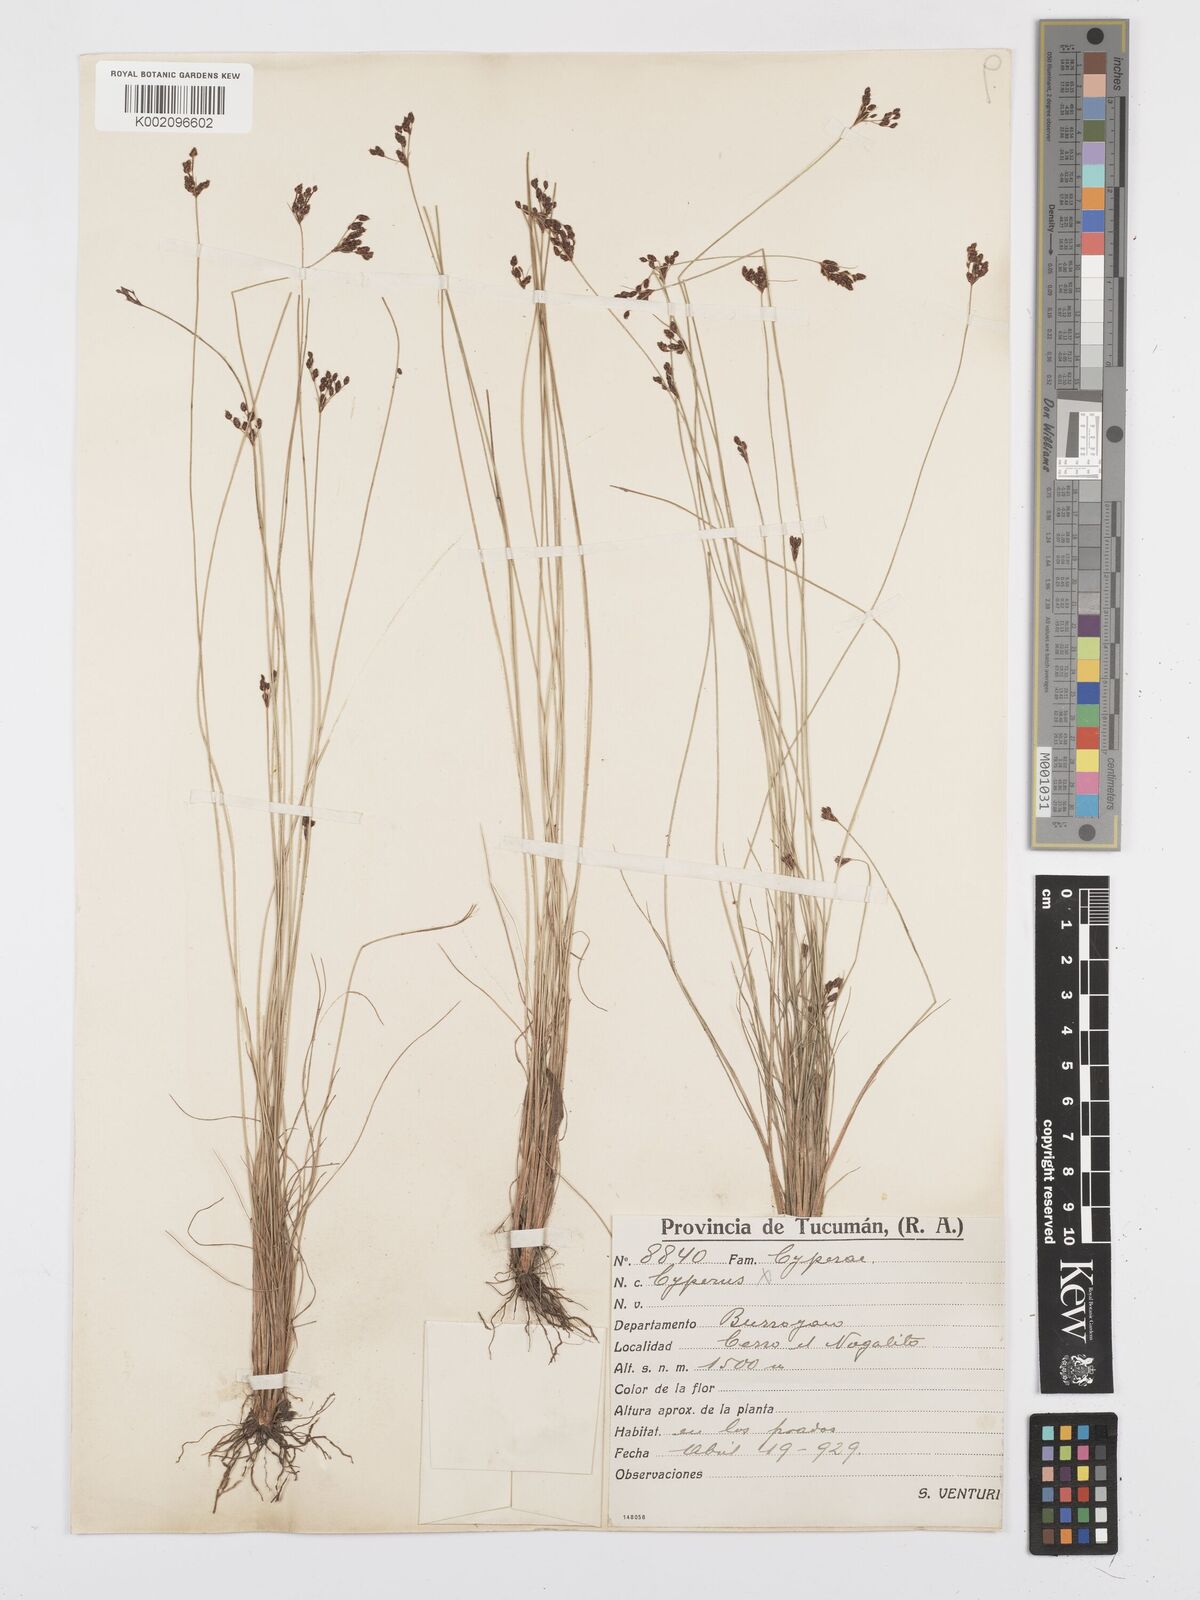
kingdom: Plantae
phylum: Tracheophyta
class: Liliopsida
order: Poales
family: Cyperaceae
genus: Bulbostylis
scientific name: Bulbostylis
